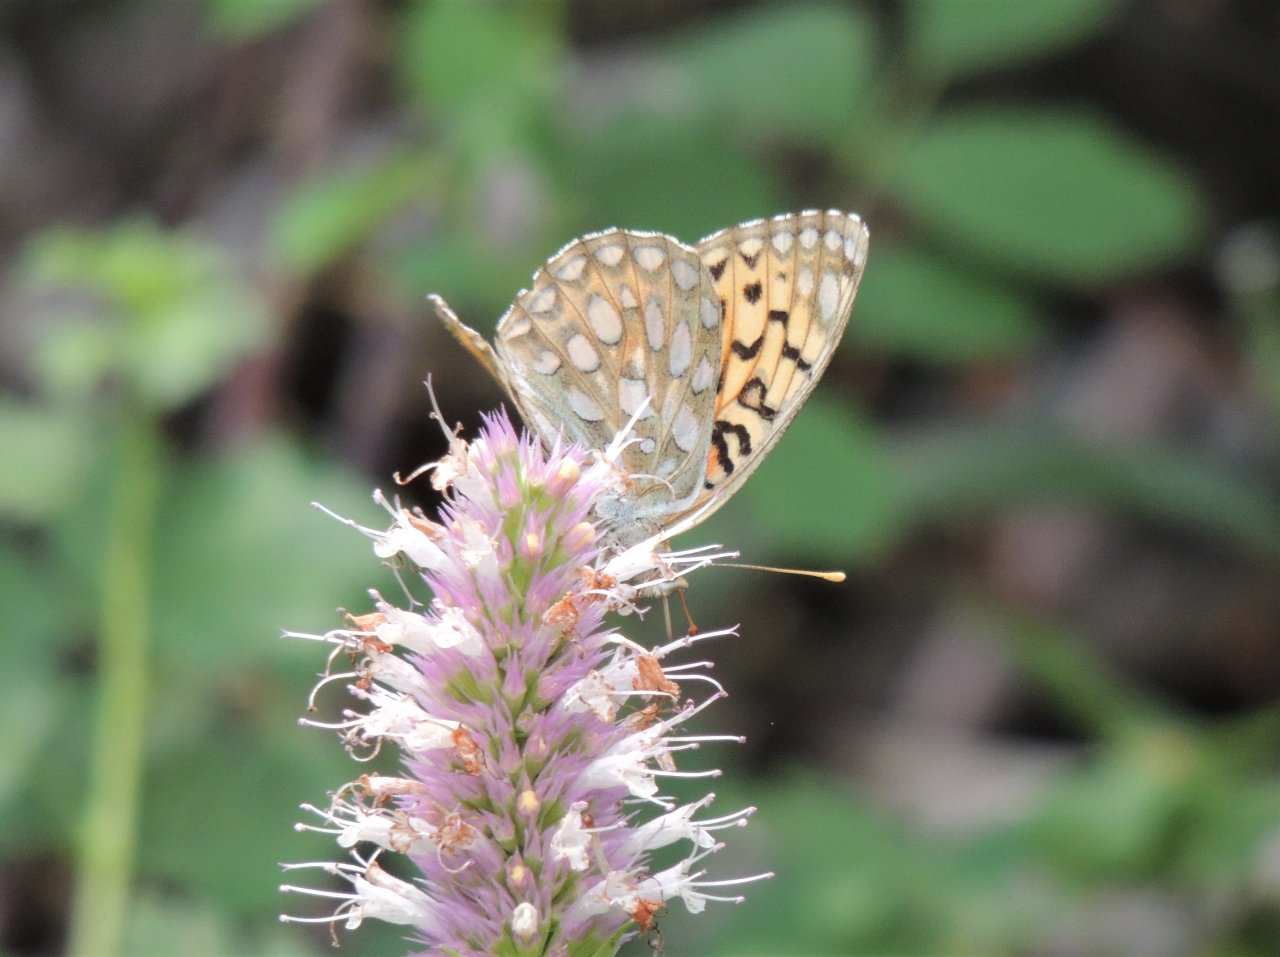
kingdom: Animalia
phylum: Arthropoda
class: Insecta
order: Lepidoptera
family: Nymphalidae
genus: Speyeria
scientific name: Speyeria callippe
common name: Callippe Fritillary
